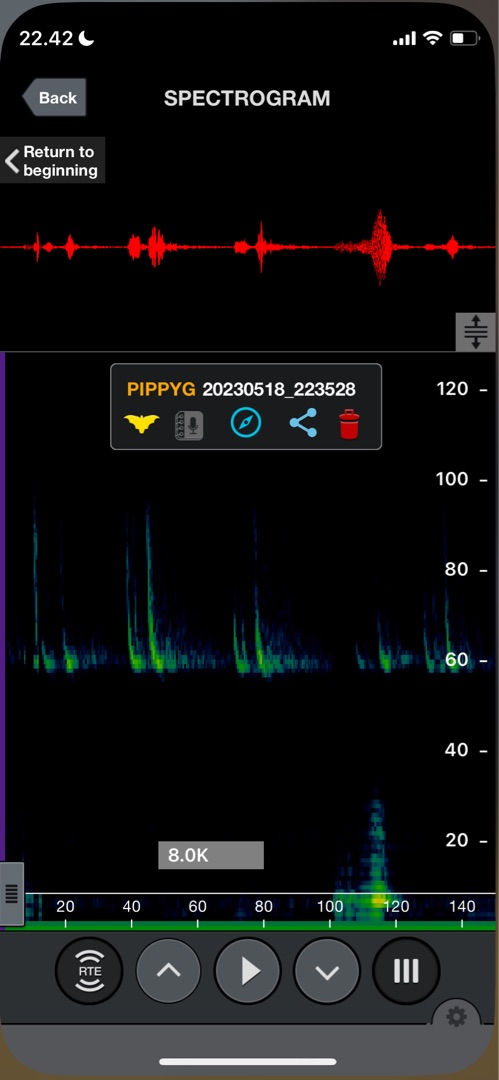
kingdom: Animalia
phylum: Chordata
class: Mammalia
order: Chiroptera
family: Vespertilionidae
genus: Pipistrellus
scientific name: Pipistrellus pygmaeus
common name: Dværgflagermus
